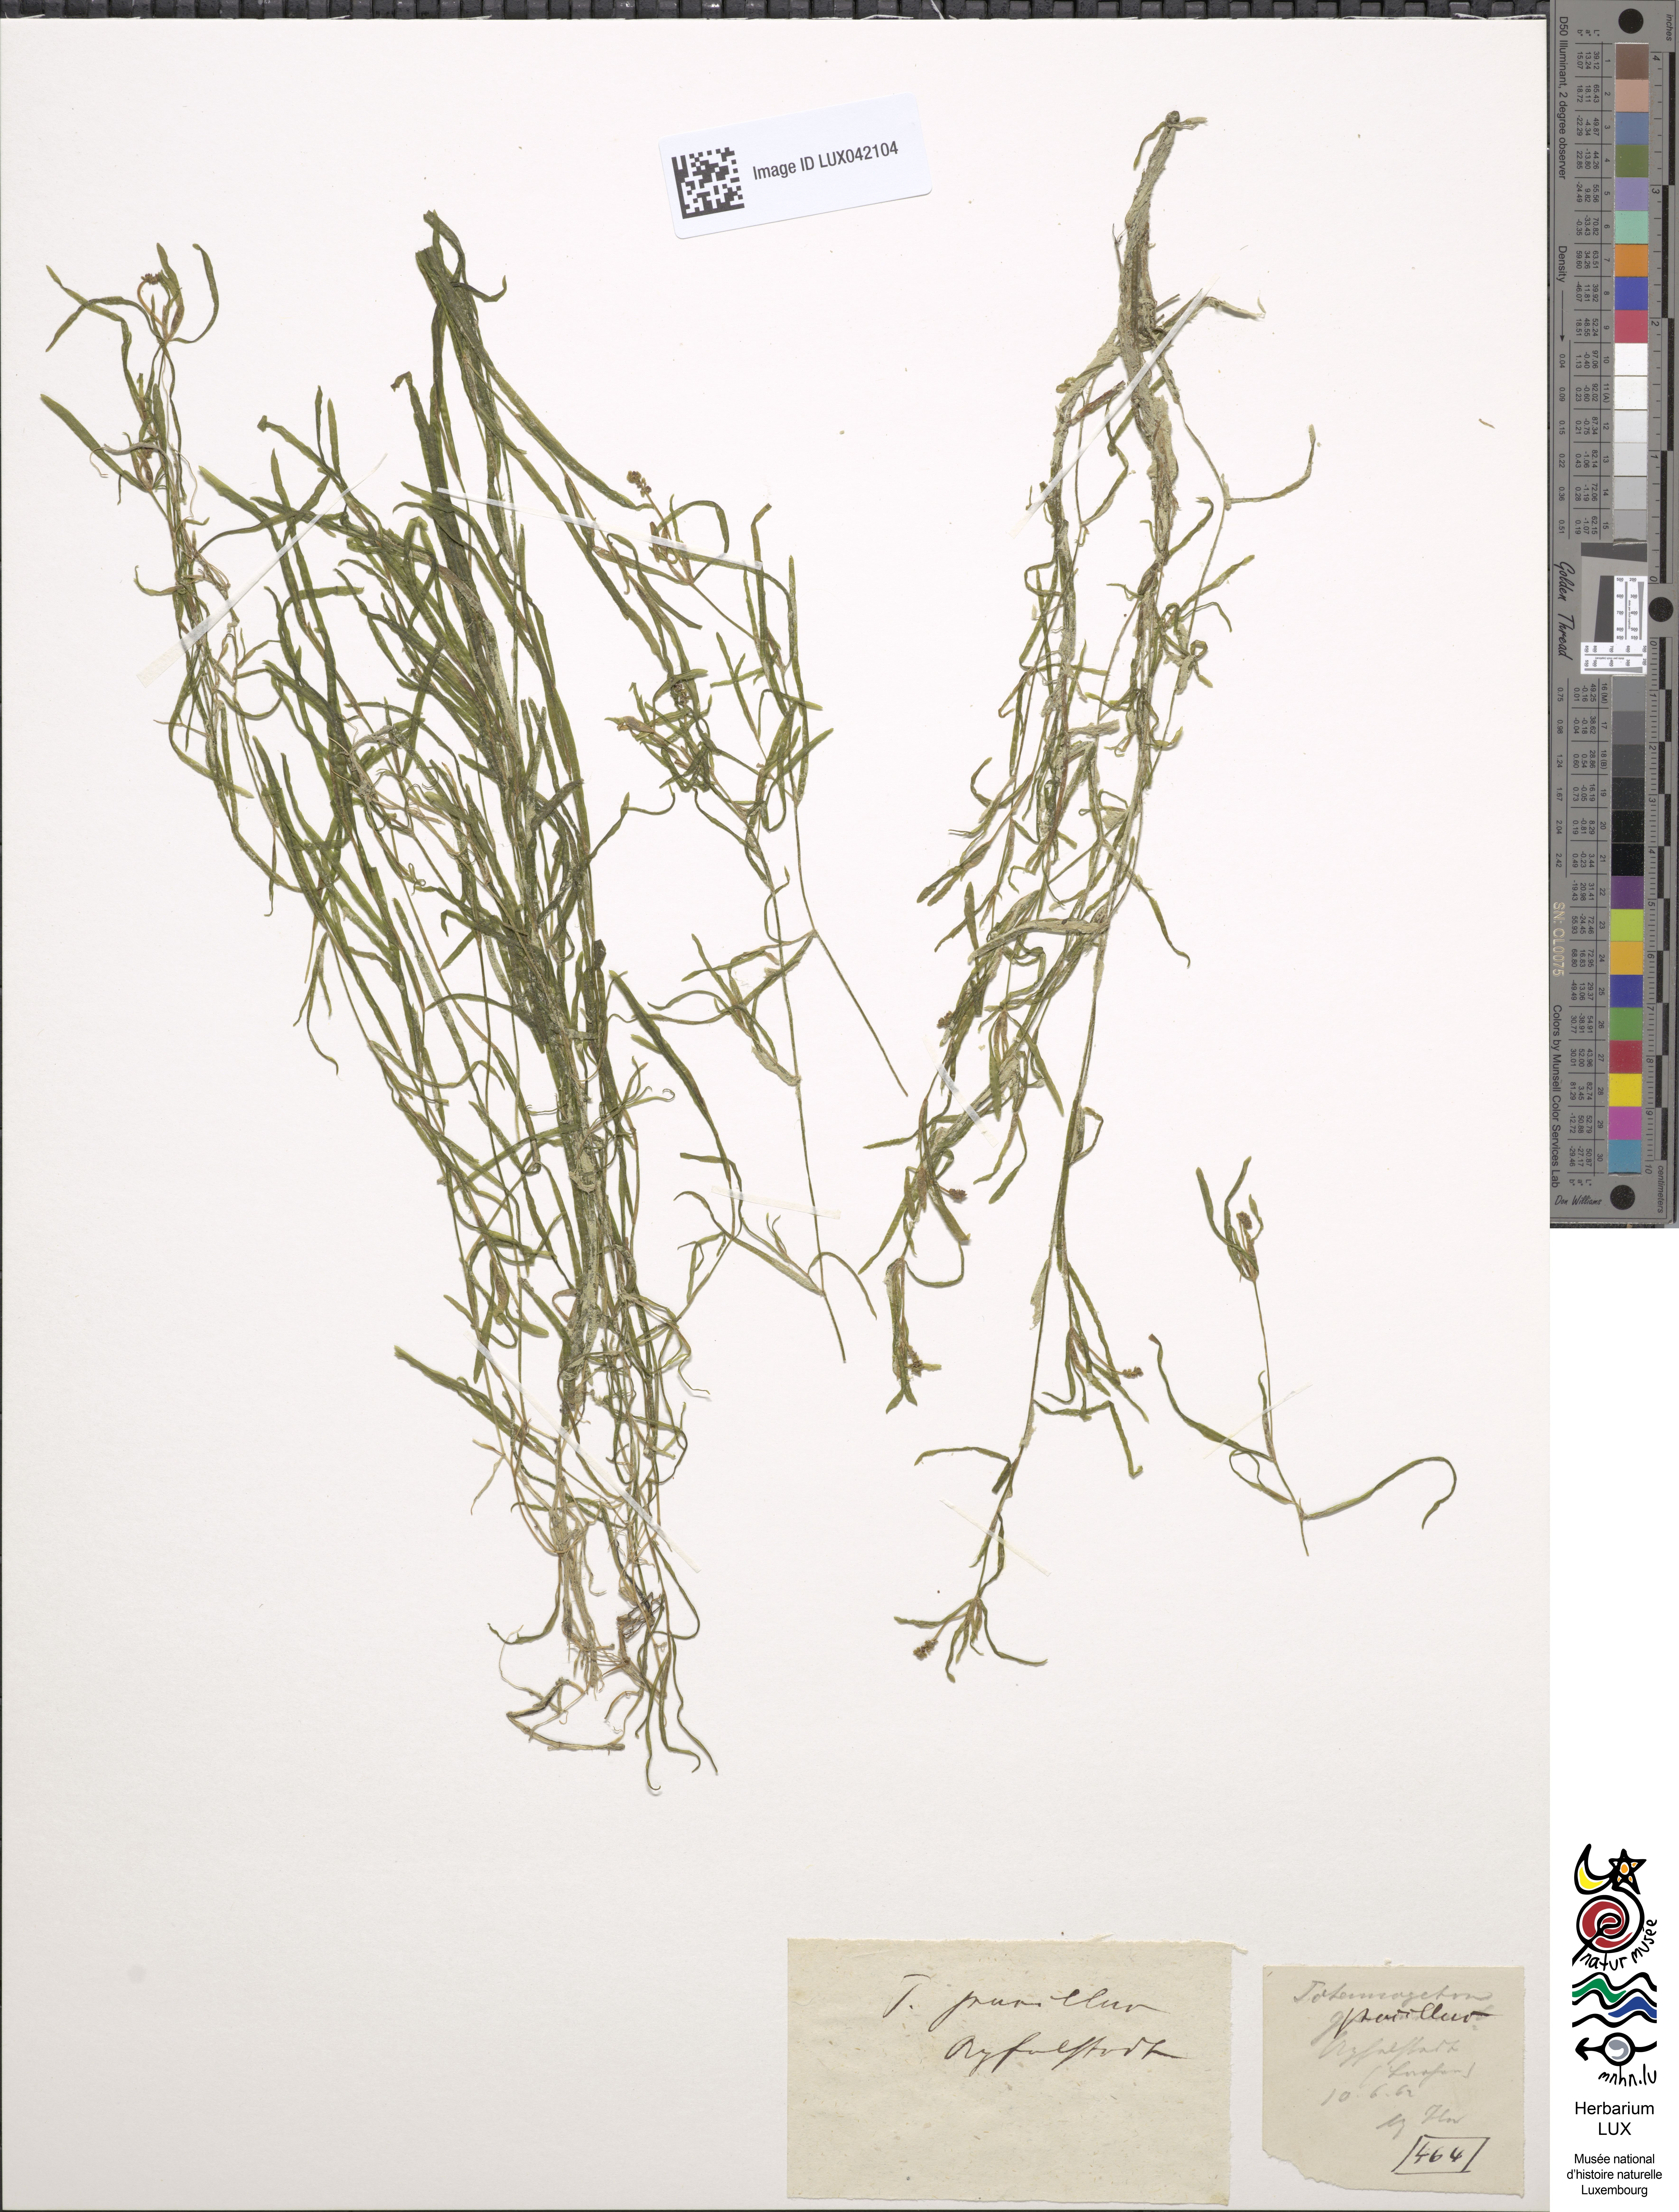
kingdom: Plantae
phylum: Tracheophyta
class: Liliopsida
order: Alismatales
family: Potamogetonaceae
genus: Potamogeton
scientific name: Potamogeton pusillus
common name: Lesser pondweed
